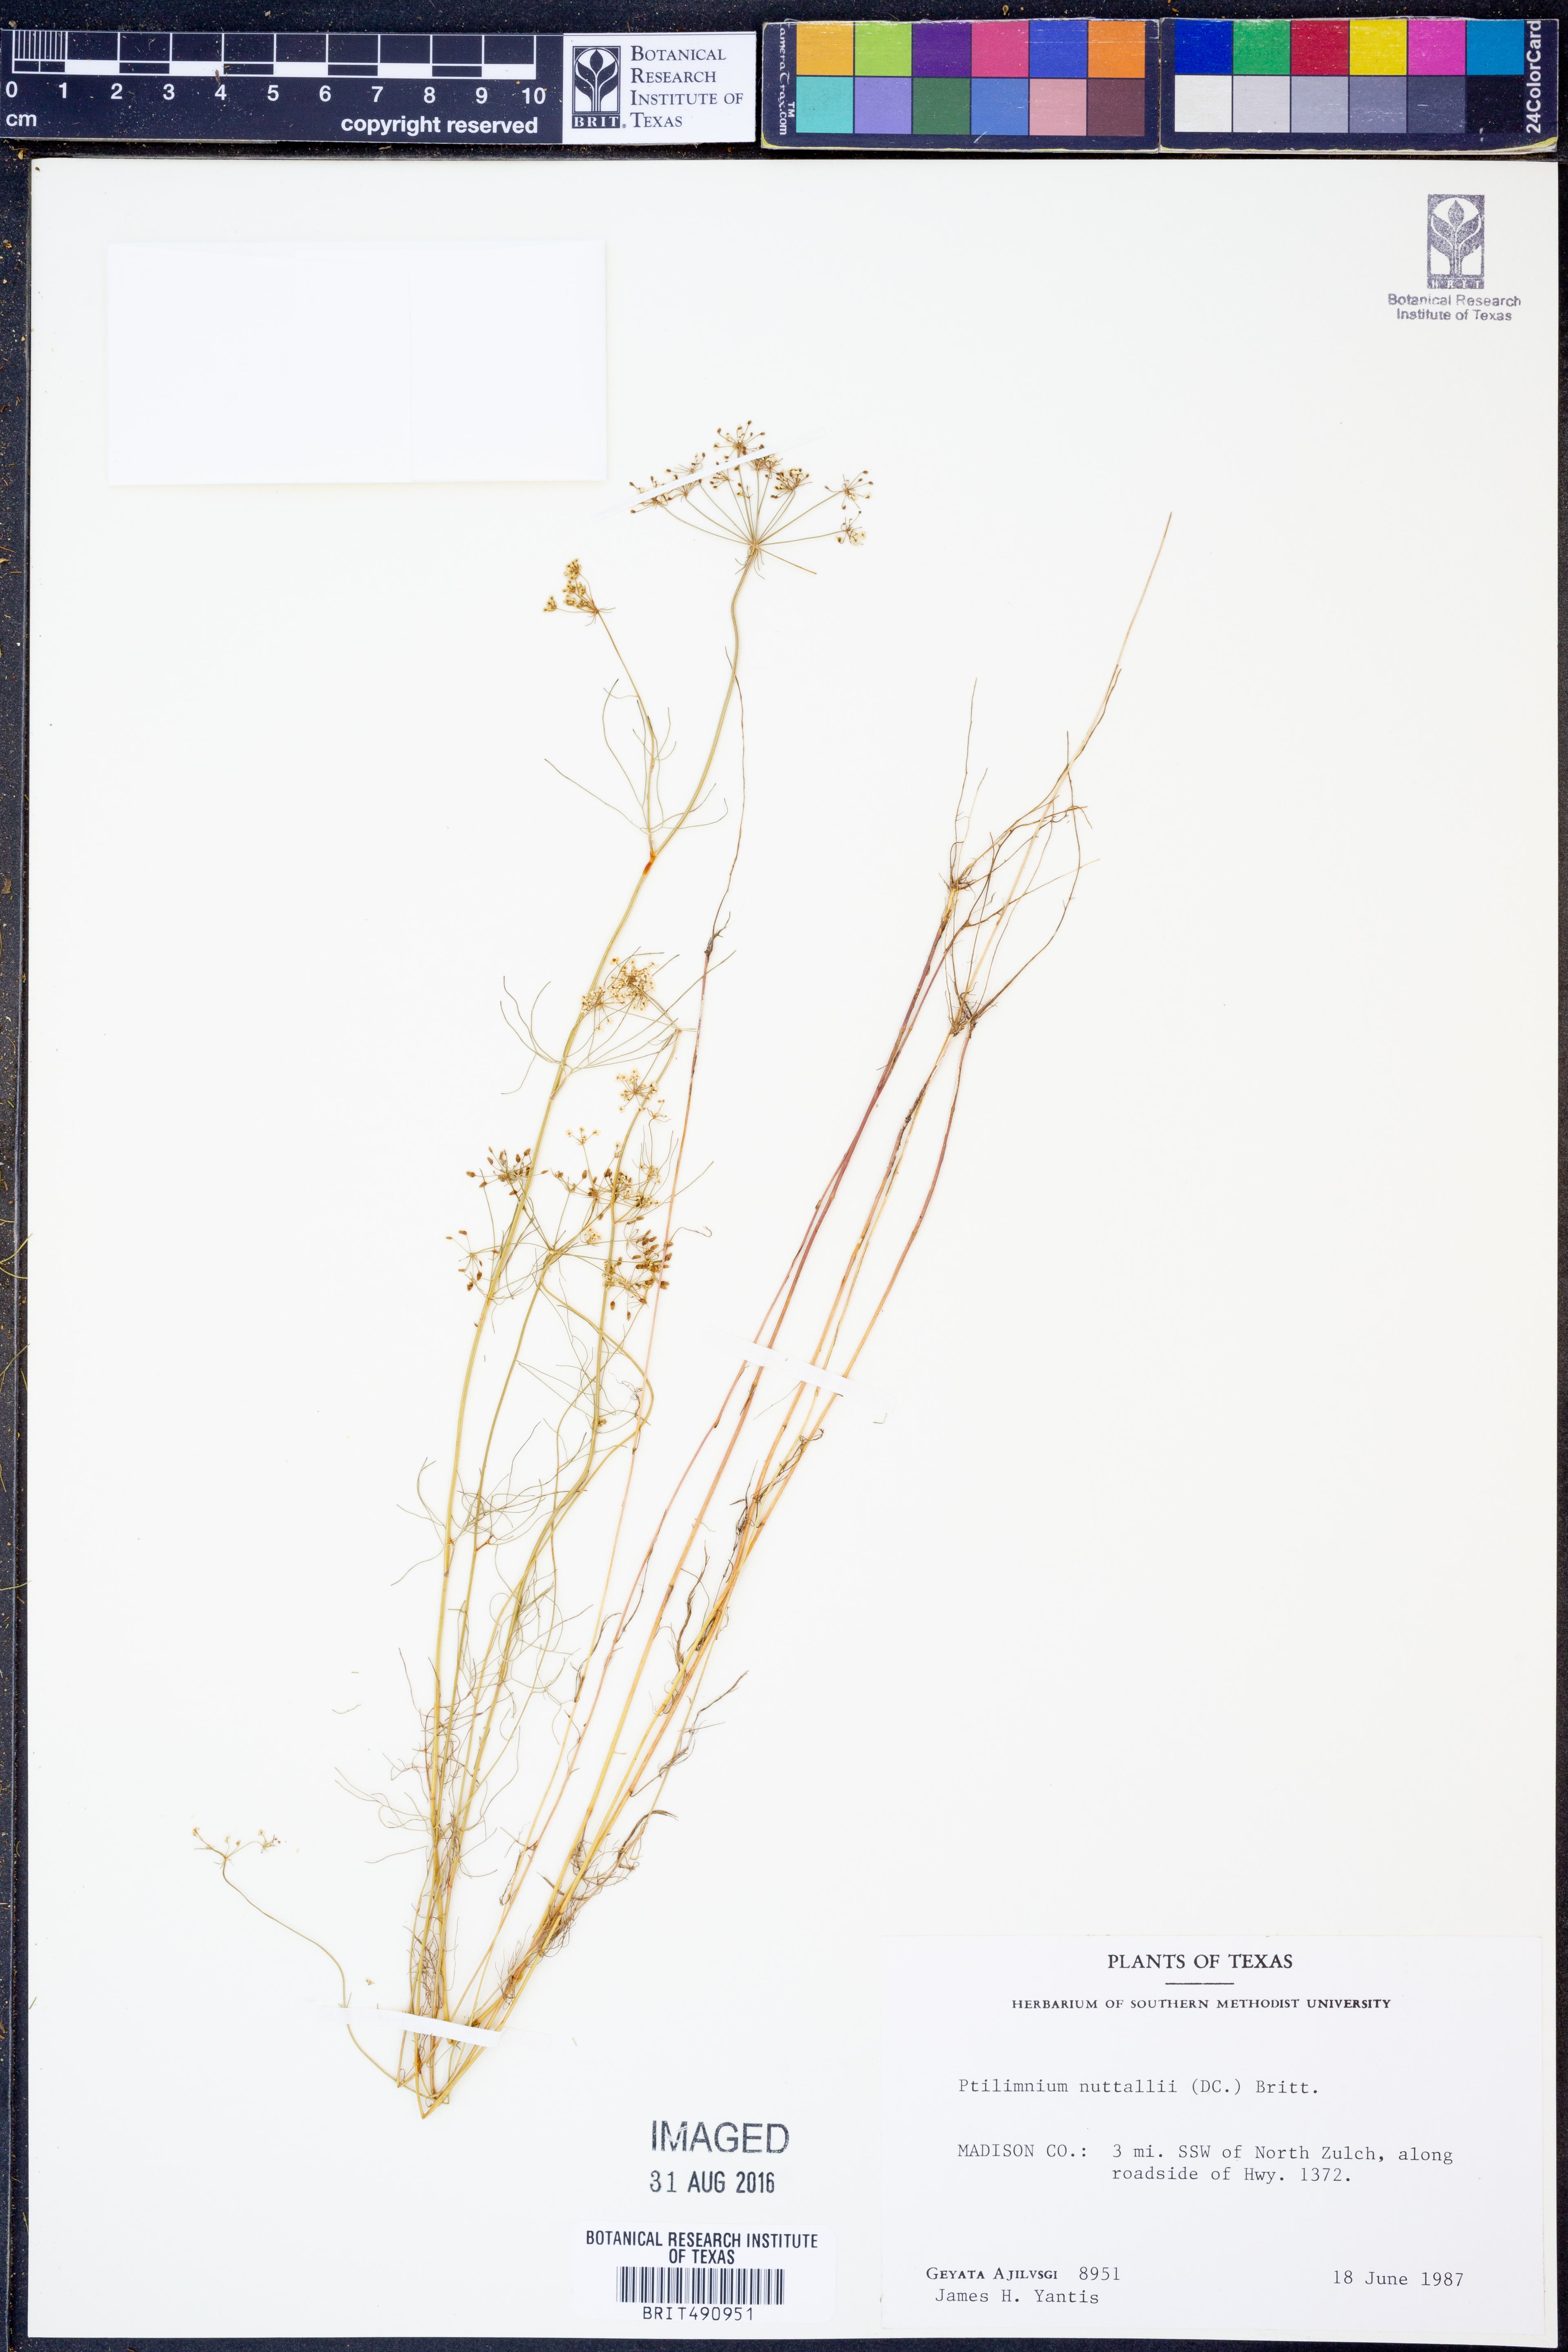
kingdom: Plantae
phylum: Tracheophyta
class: Magnoliopsida
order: Apiales
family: Apiaceae
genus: Ptilimnium
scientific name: Ptilimnium nuttallii
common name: Ozark bishop's-weed
